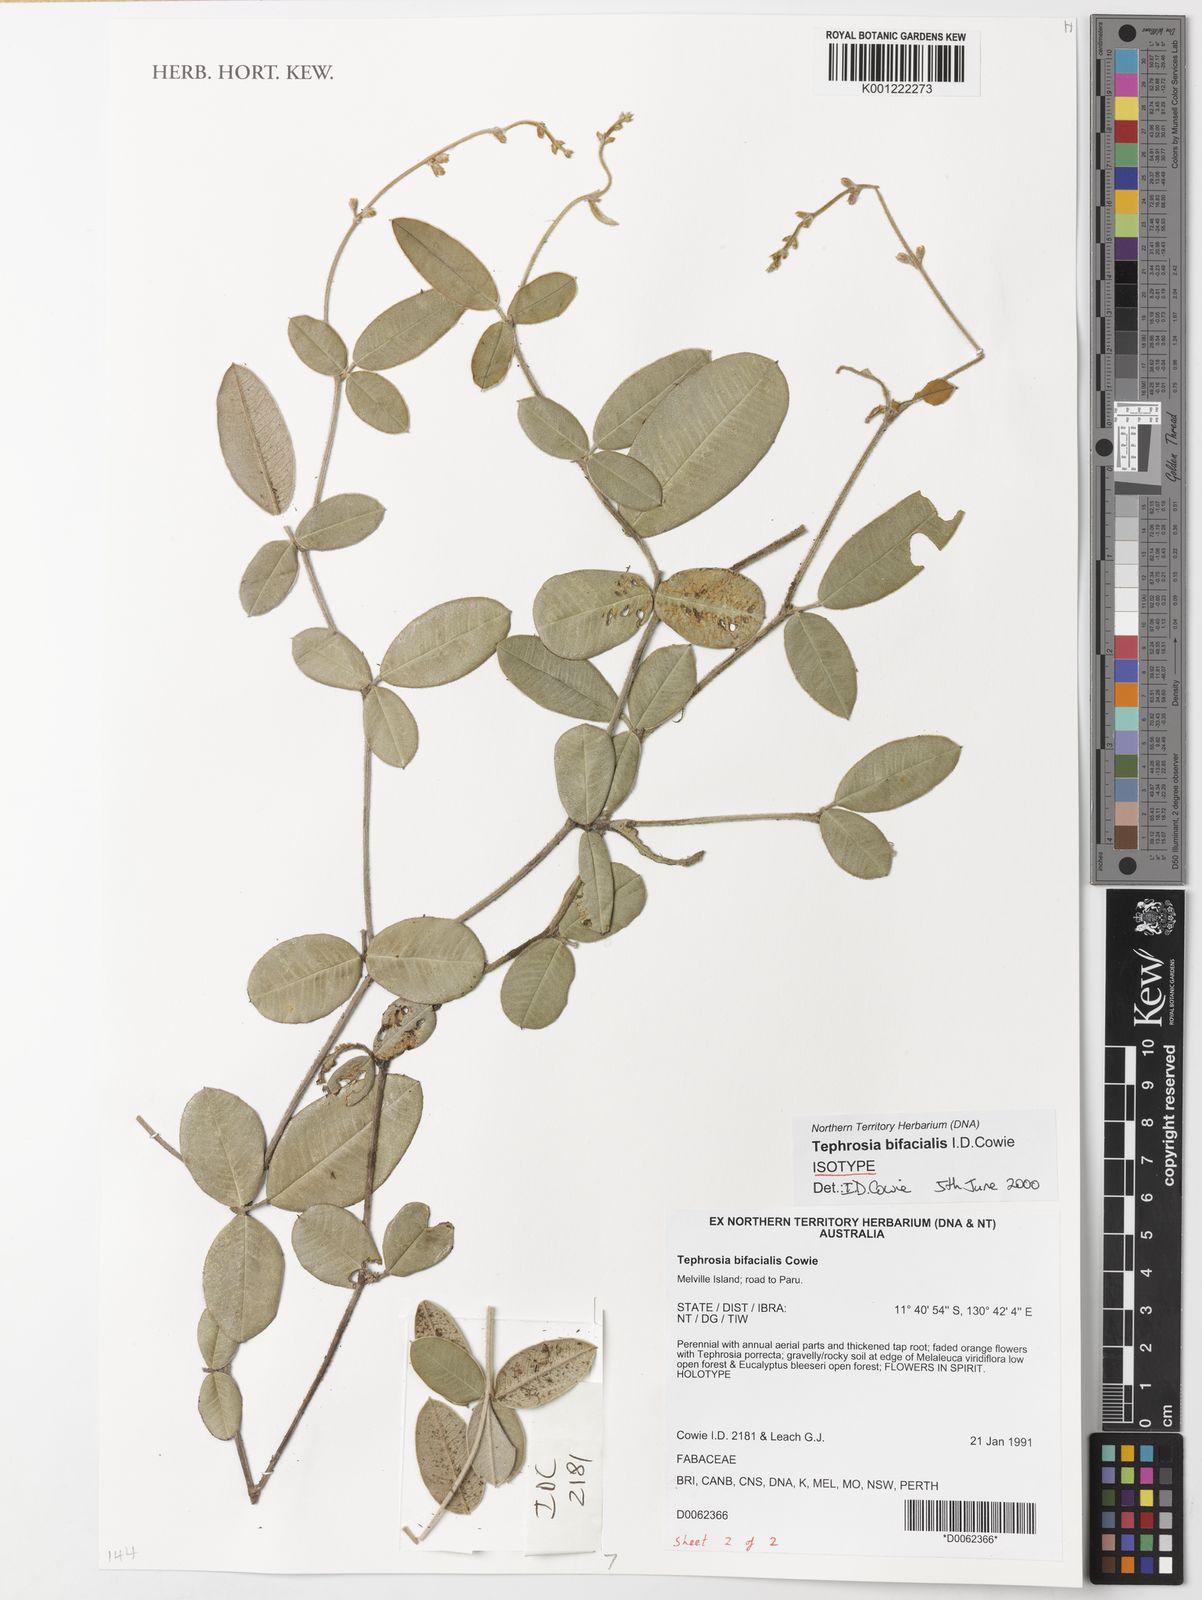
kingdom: Plantae
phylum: Tracheophyta
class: Magnoliopsida
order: Fabales
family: Fabaceae
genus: Tephrosia
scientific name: Tephrosia bifacialis
